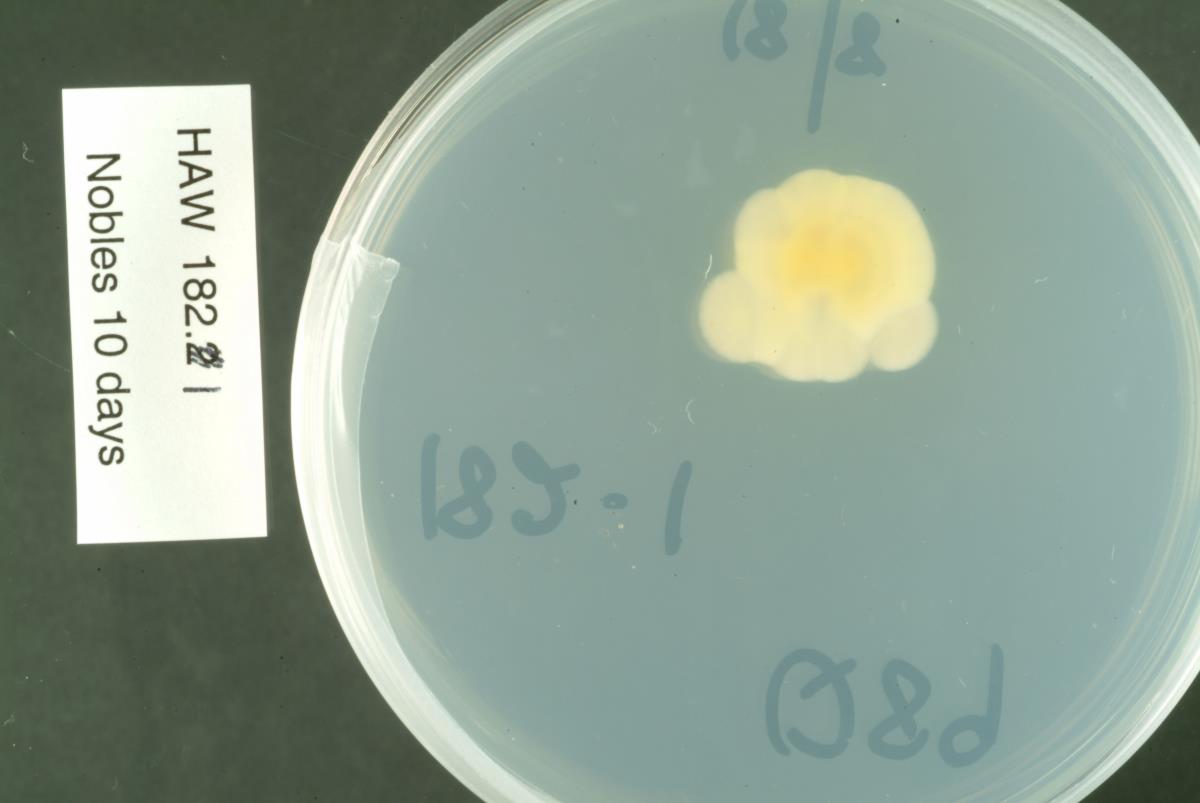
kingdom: Fungi
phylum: Ascomycota
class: Leotiomycetes
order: Rhytismatales
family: Rhytismataceae
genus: Lophodermium
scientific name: Lophodermium agathidis
